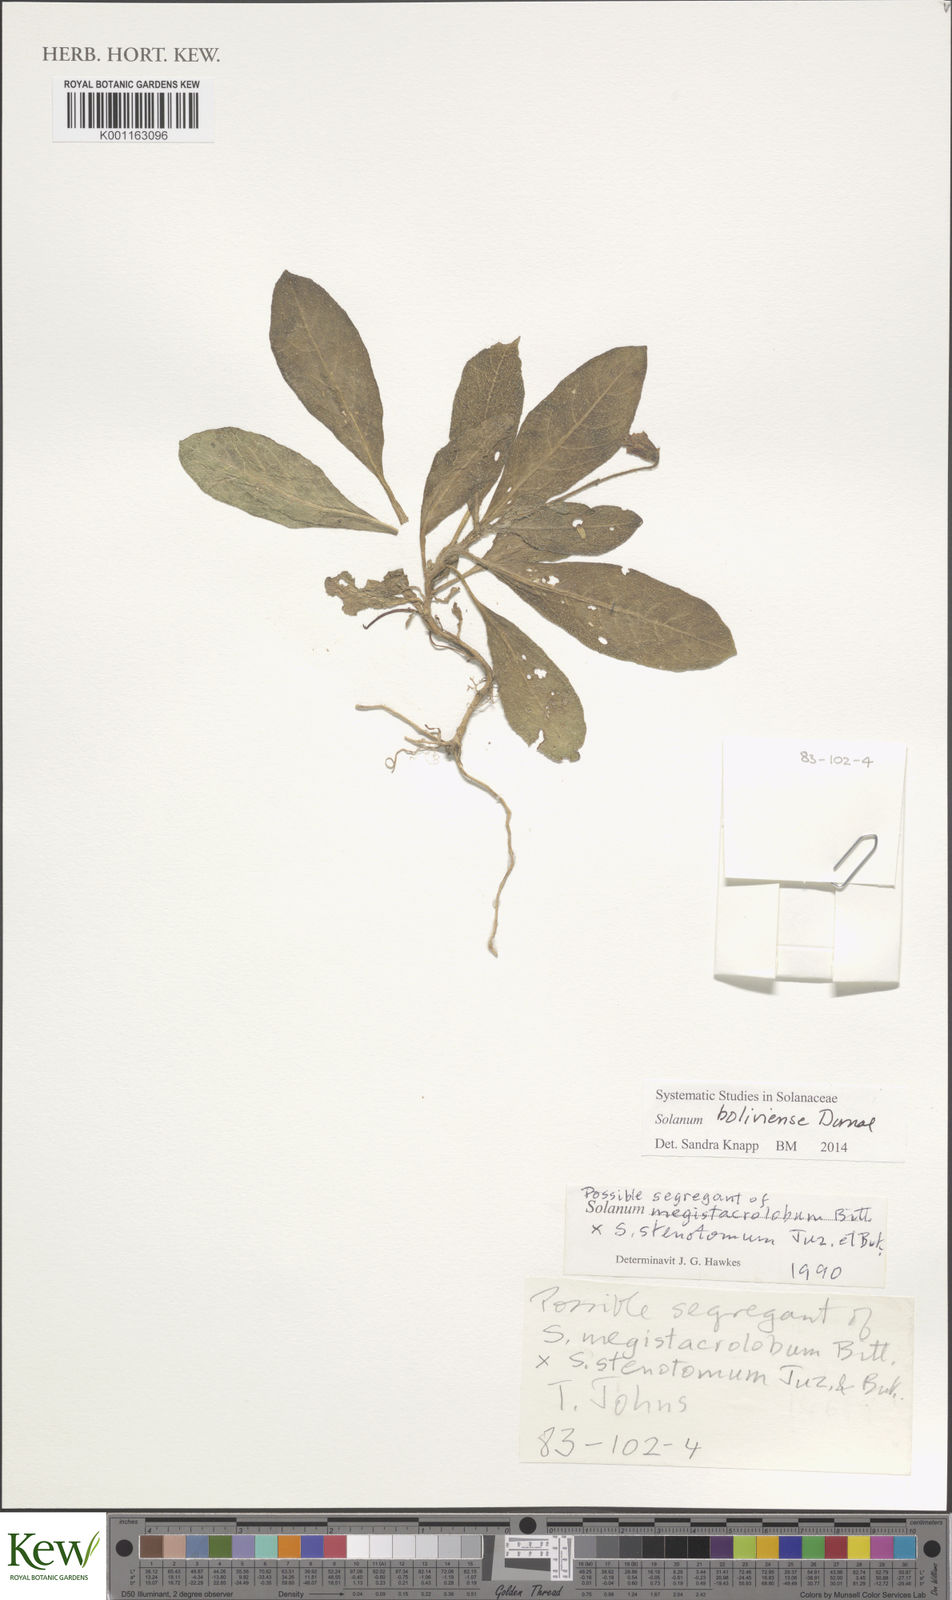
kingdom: Plantae
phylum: Tracheophyta
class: Magnoliopsida
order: Solanales
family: Solanaceae
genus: Solanum
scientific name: Solanum boliviense
